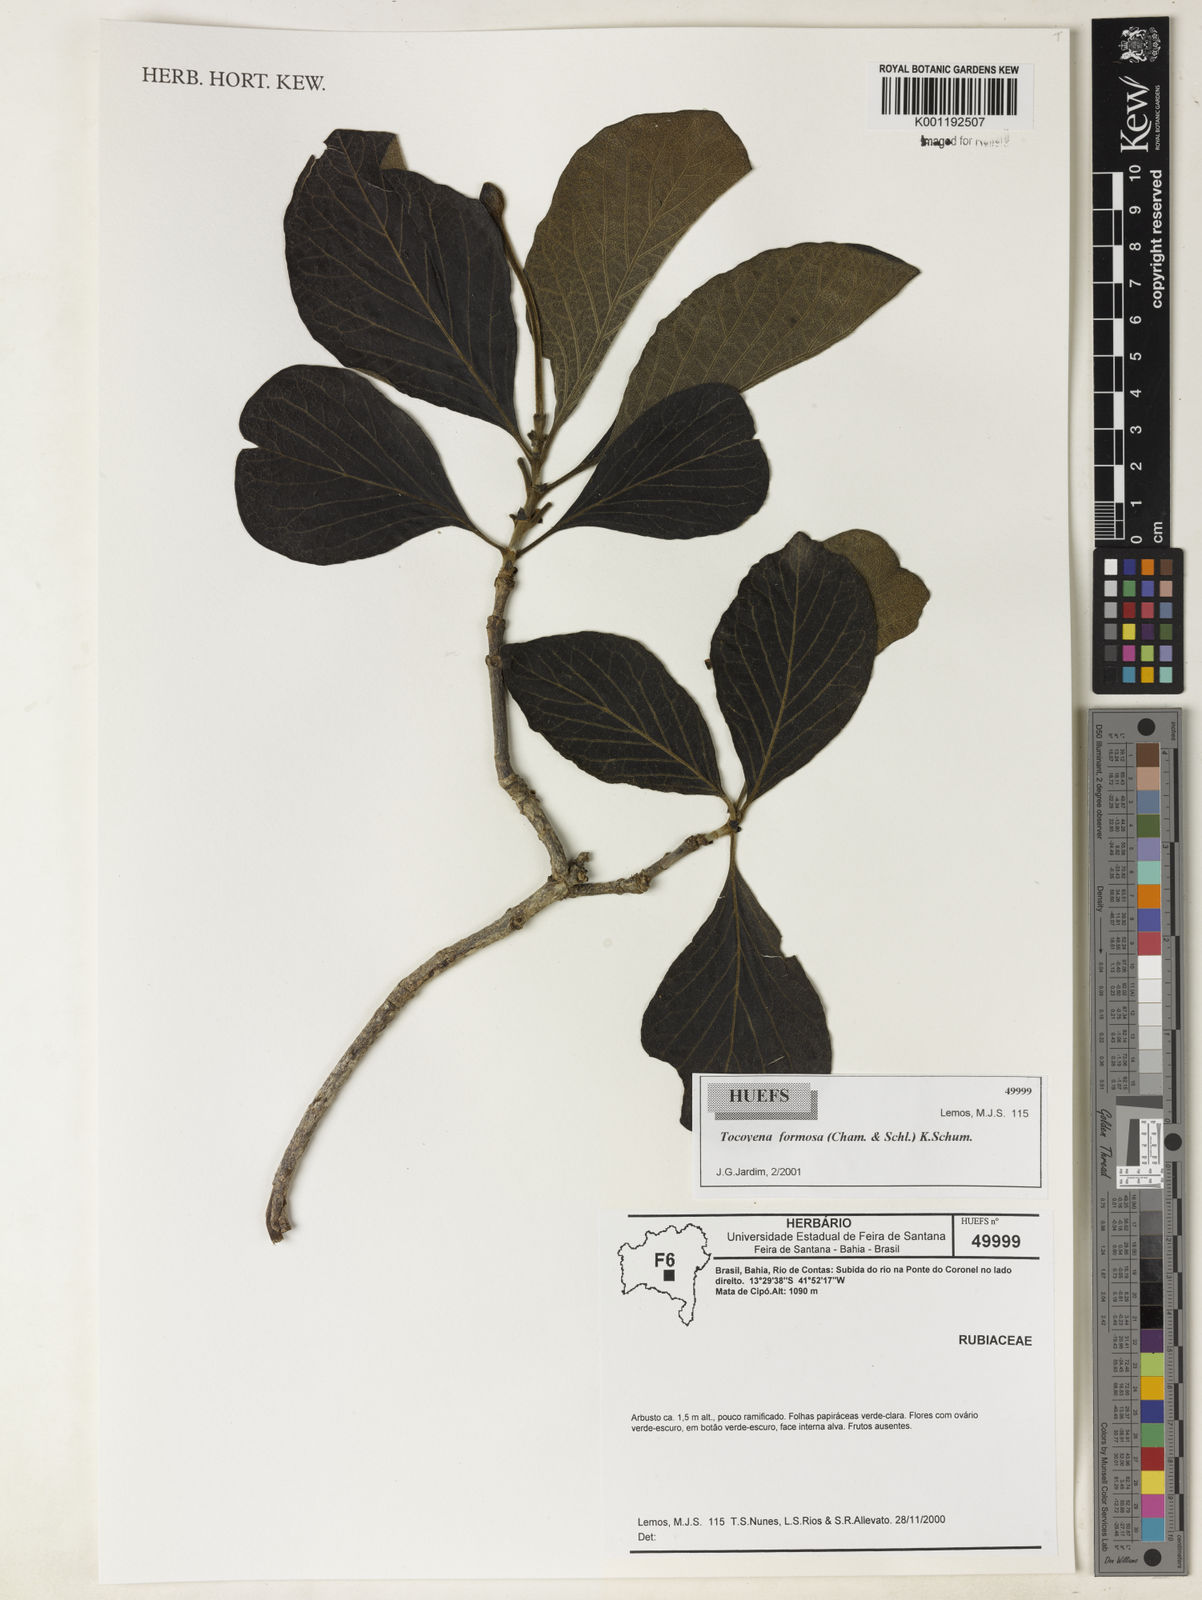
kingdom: Plantae
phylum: Tracheophyta
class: Magnoliopsida
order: Gentianales
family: Rubiaceae
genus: Tocoyena
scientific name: Tocoyena formosa
